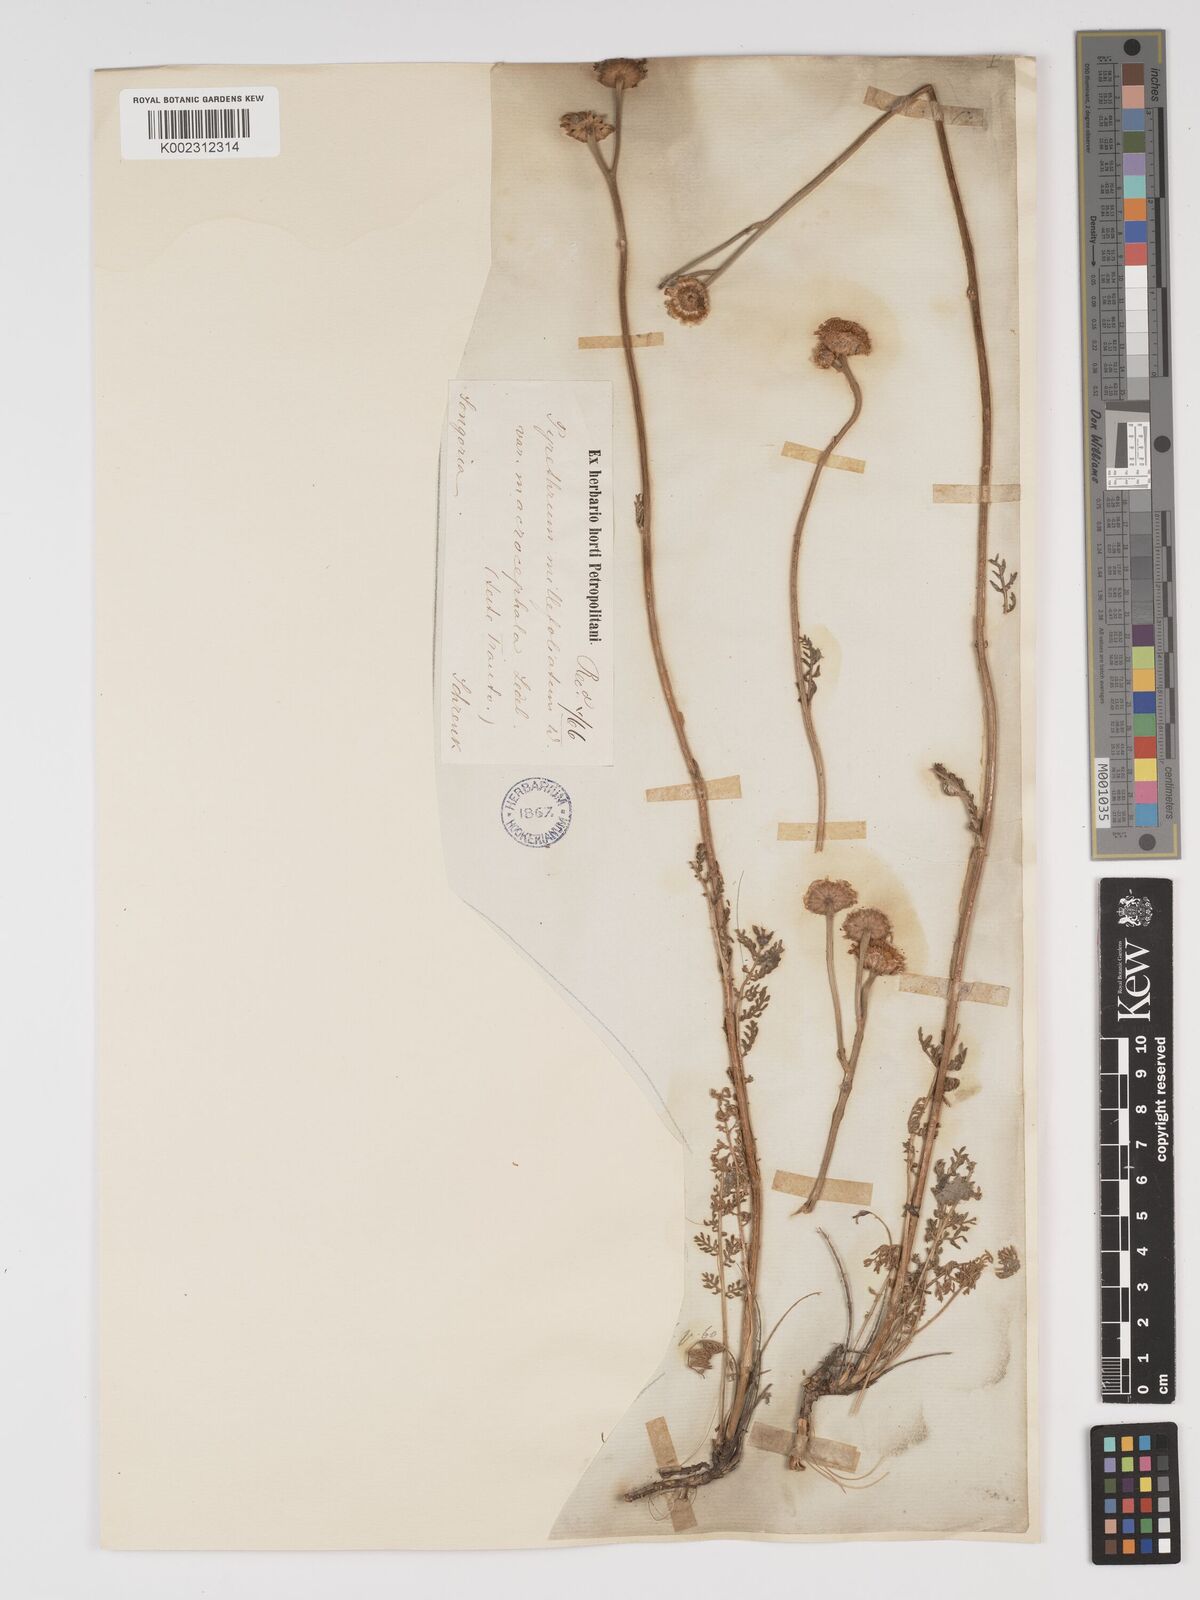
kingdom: Plantae
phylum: Tracheophyta
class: Magnoliopsida
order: Asterales
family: Asteraceae
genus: Tanacetum
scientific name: Tanacetum millefolium
